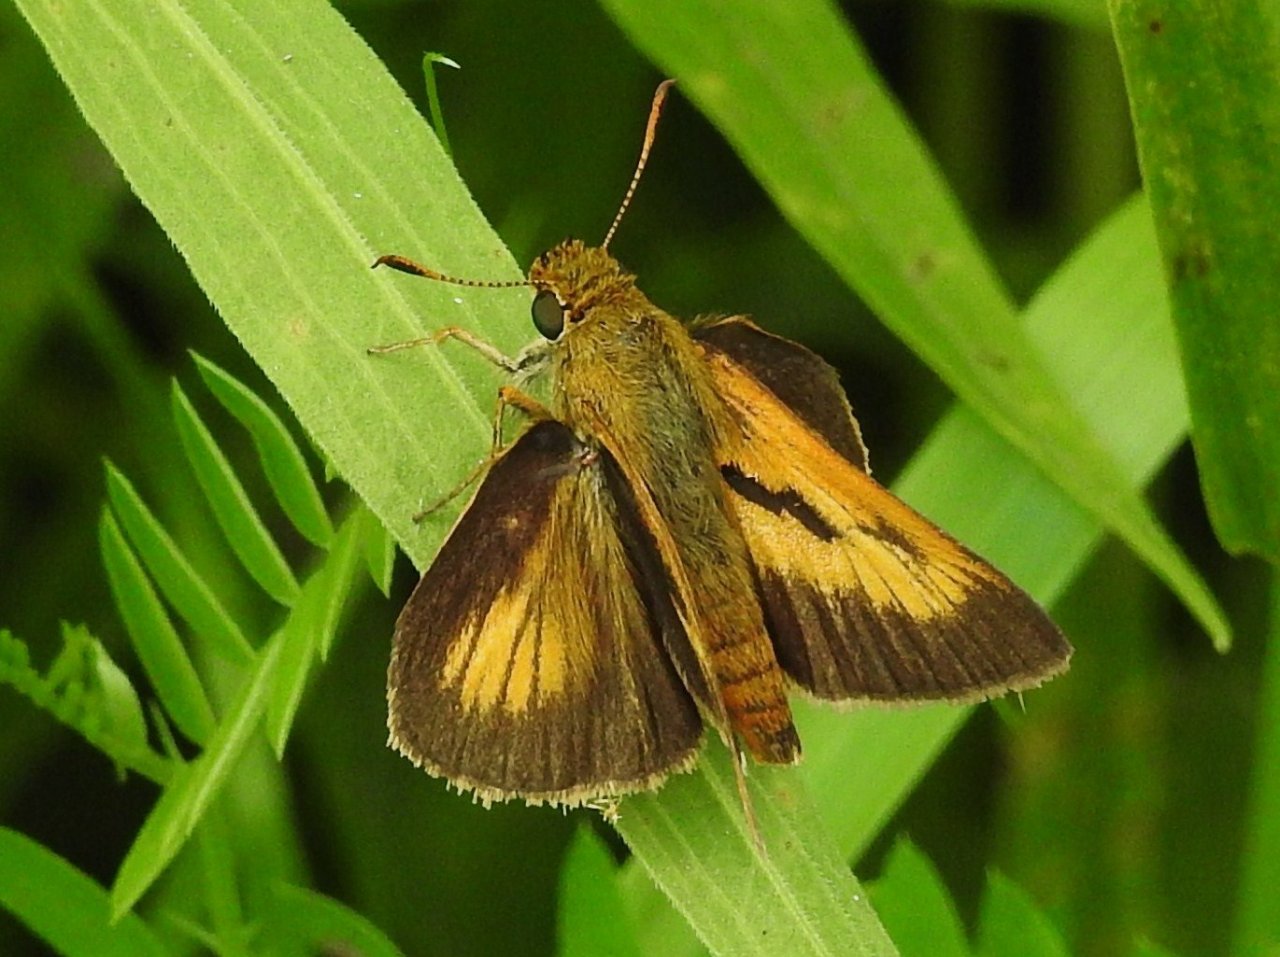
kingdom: Animalia
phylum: Arthropoda
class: Insecta
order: Lepidoptera
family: Hesperiidae
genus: Euphyes
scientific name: Euphyes conspicua
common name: Black Dash
